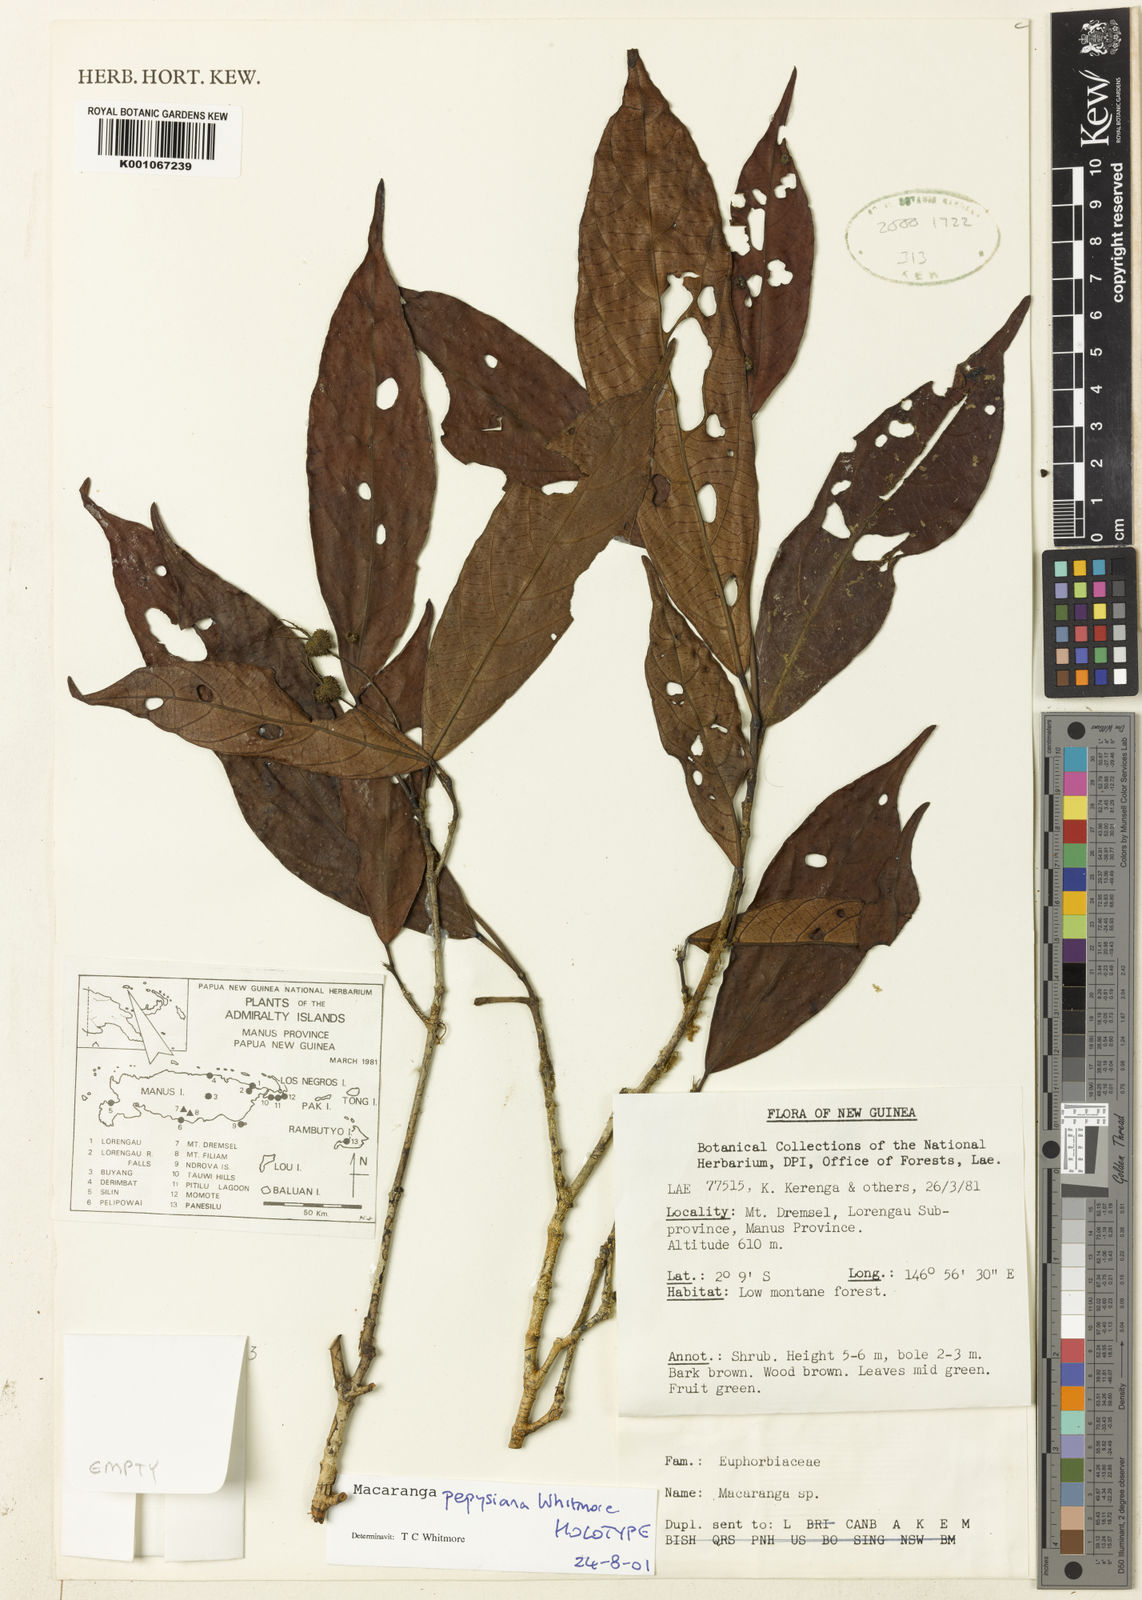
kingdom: Plantae
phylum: Tracheophyta
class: Magnoliopsida
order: Malpighiales
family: Euphorbiaceae
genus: Macaranga
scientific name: Macaranga pepysiana
